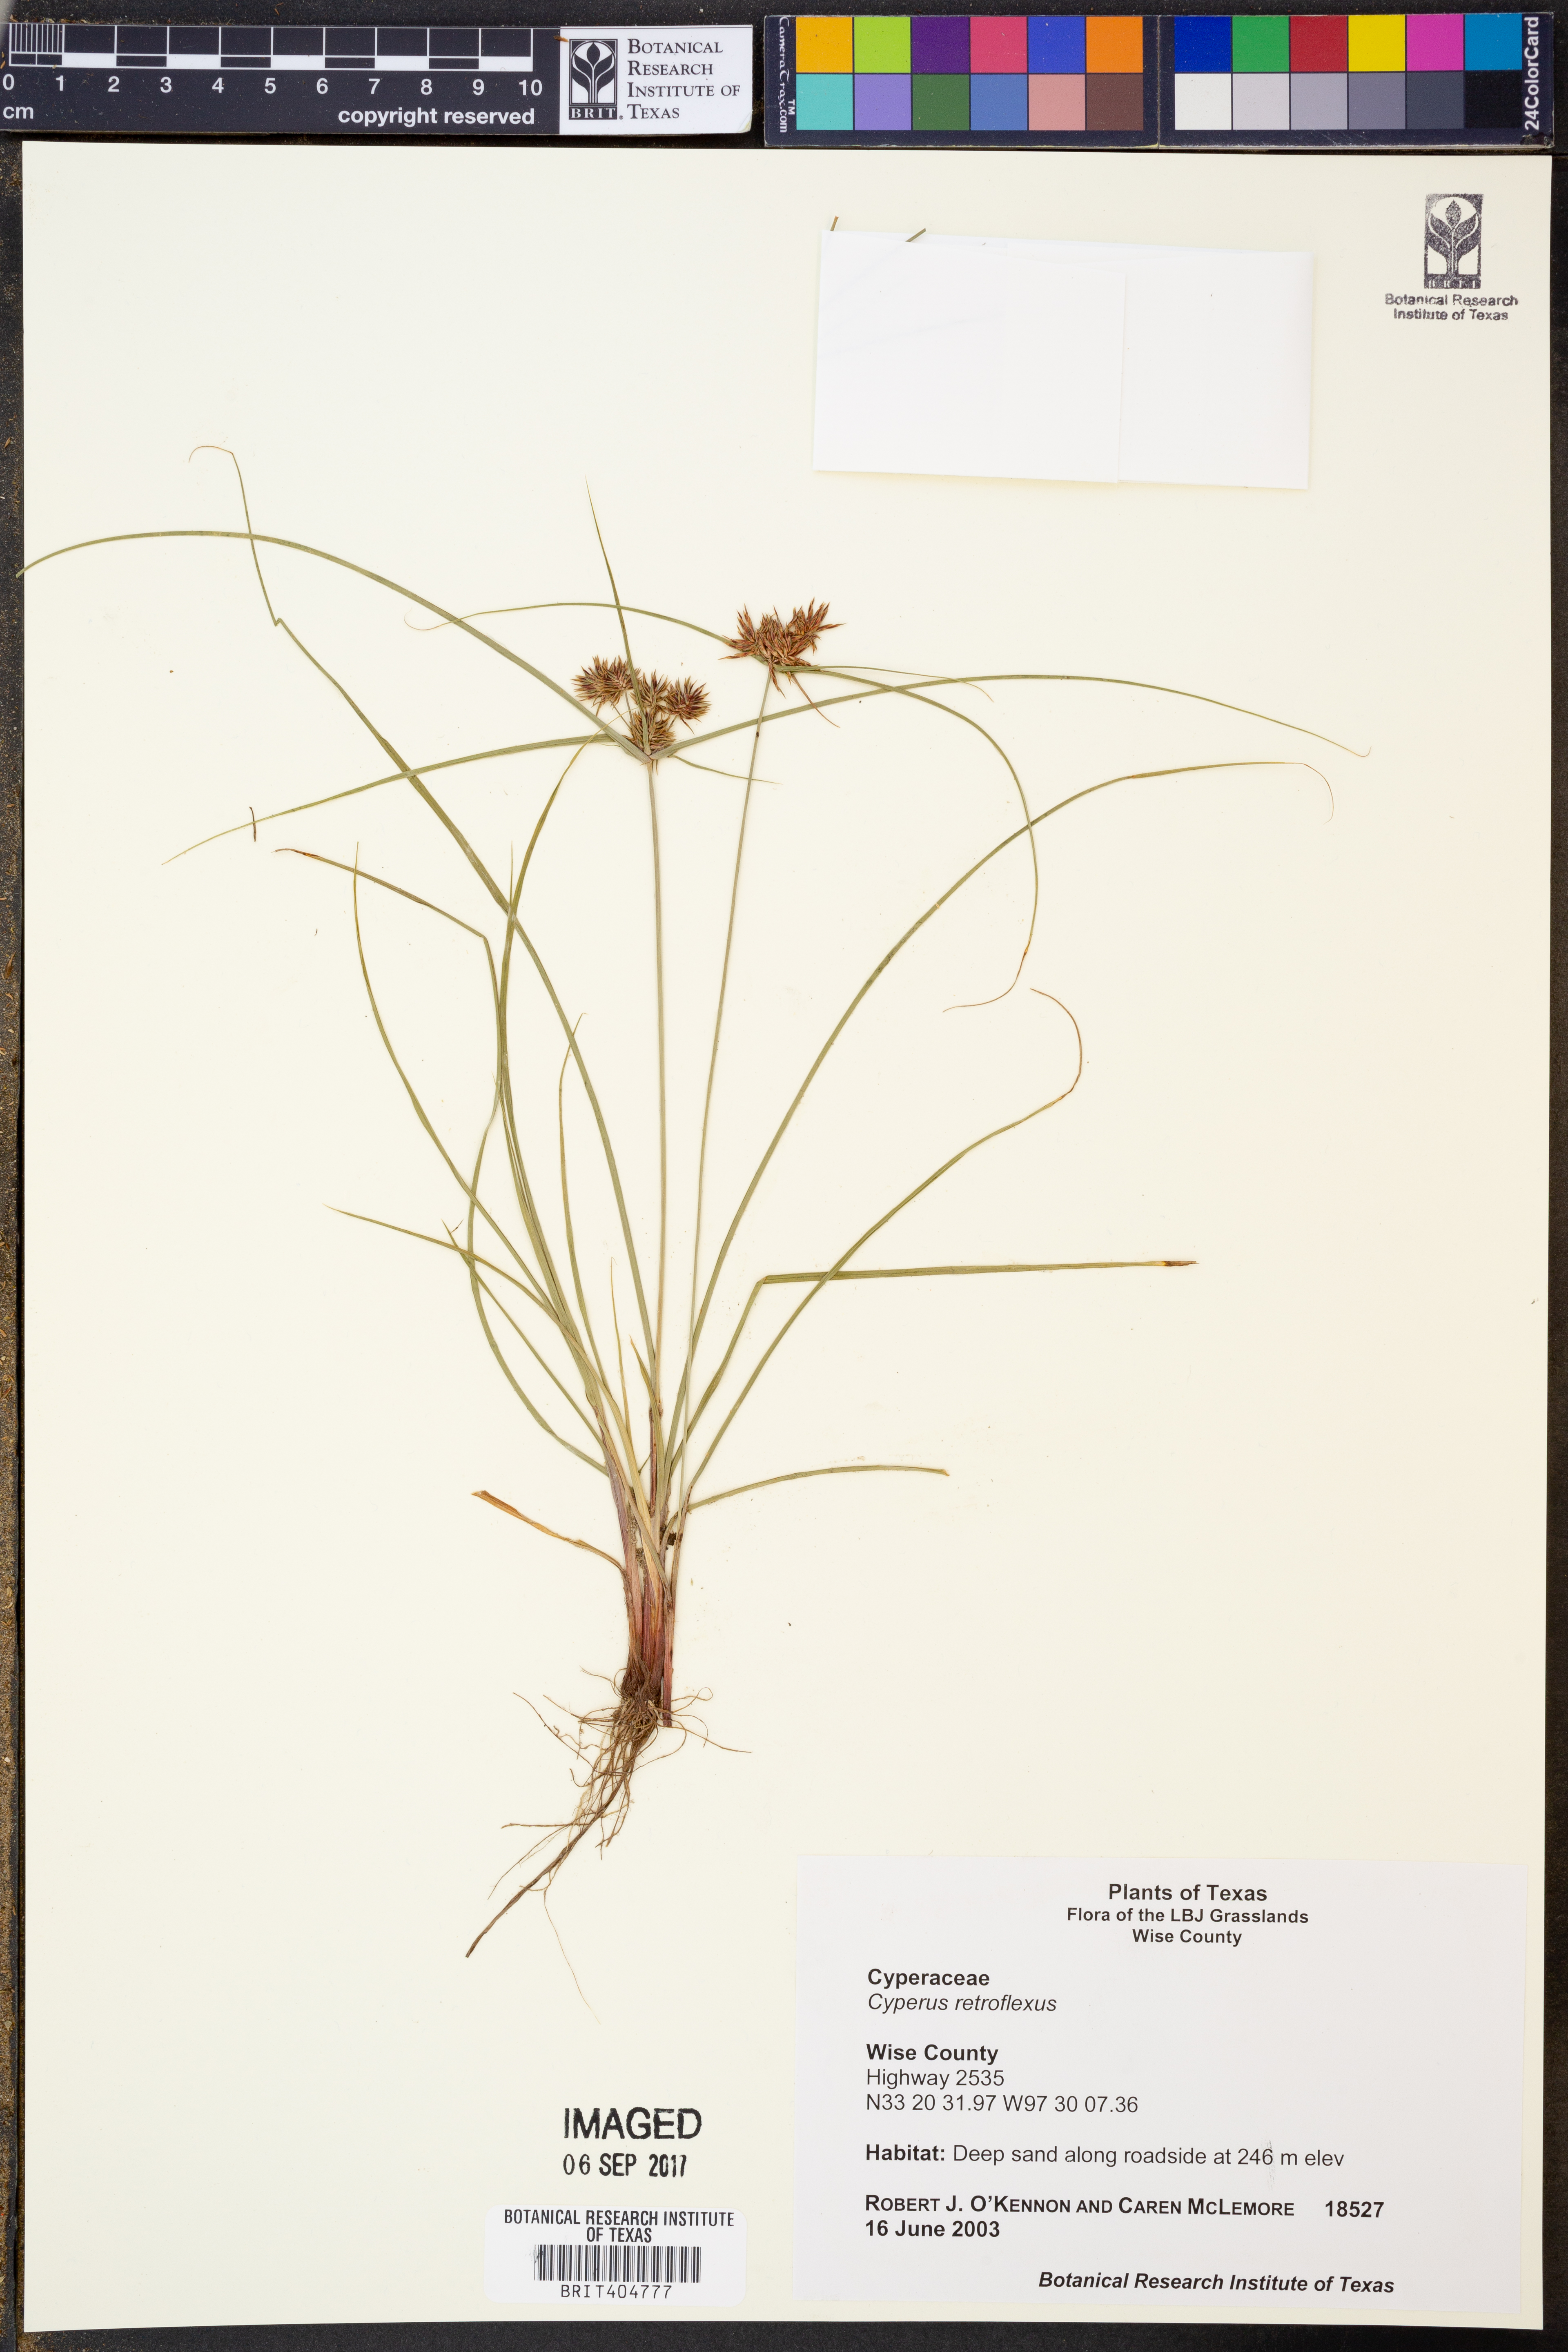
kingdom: Plantae
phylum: Tracheophyta
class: Liliopsida
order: Poales
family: Cyperaceae
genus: Cyperus
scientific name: Cyperus retroflexus
